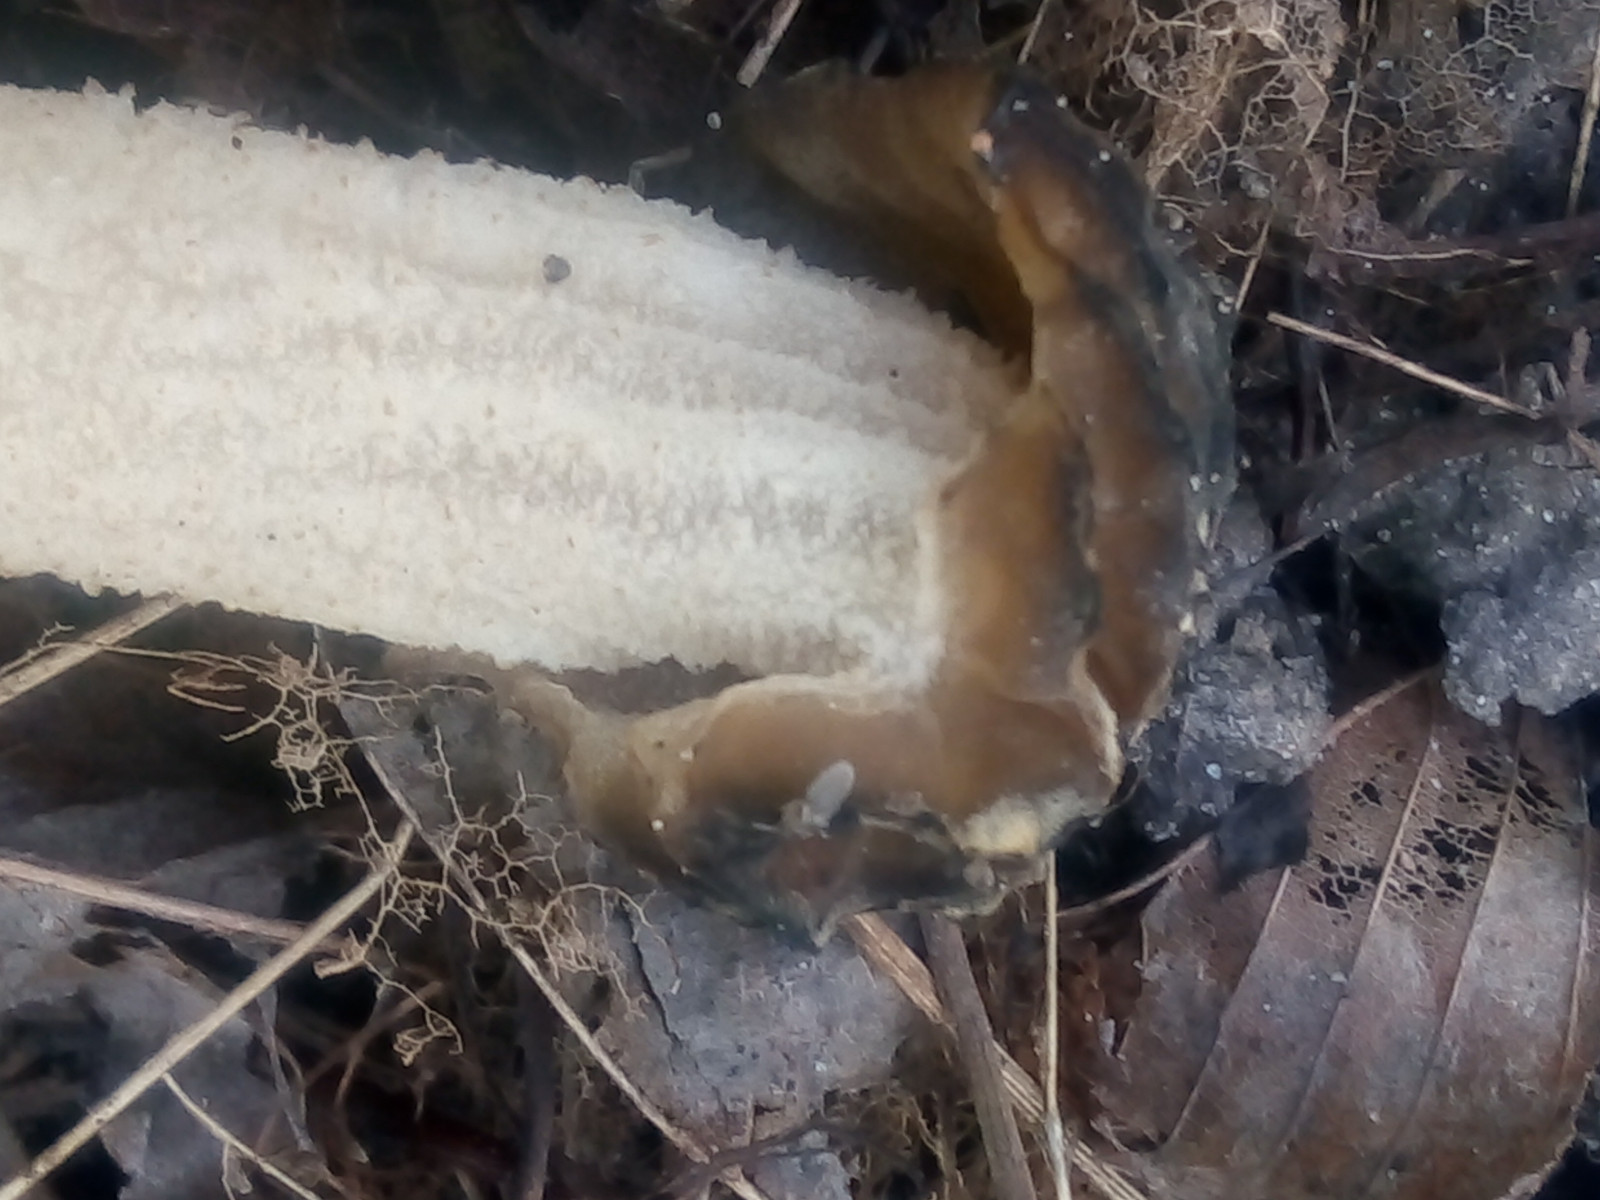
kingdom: Fungi
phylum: Ascomycota
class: Pezizomycetes
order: Pezizales
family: Morchellaceae
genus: Morchella
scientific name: Morchella semilibera
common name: hætte-morkel
